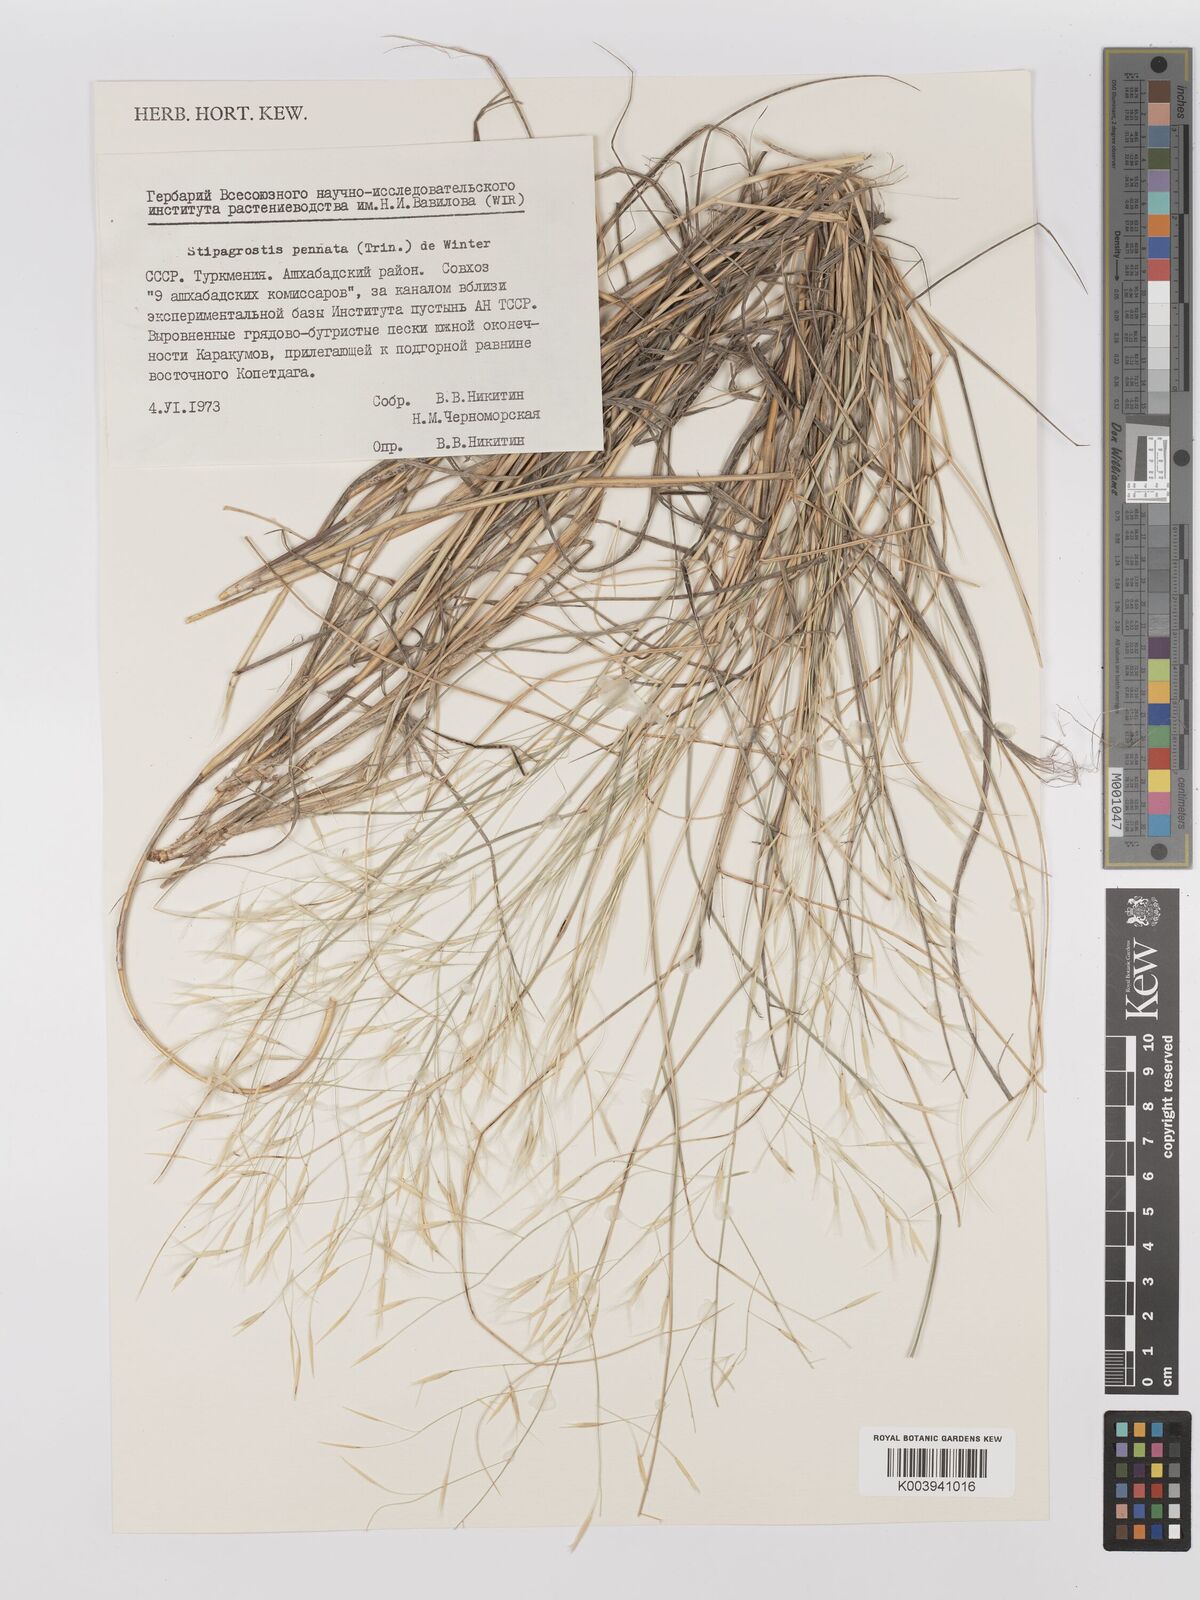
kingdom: Plantae
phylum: Tracheophyta
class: Liliopsida
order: Poales
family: Poaceae
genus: Stipagrostis
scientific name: Stipagrostis pennata
